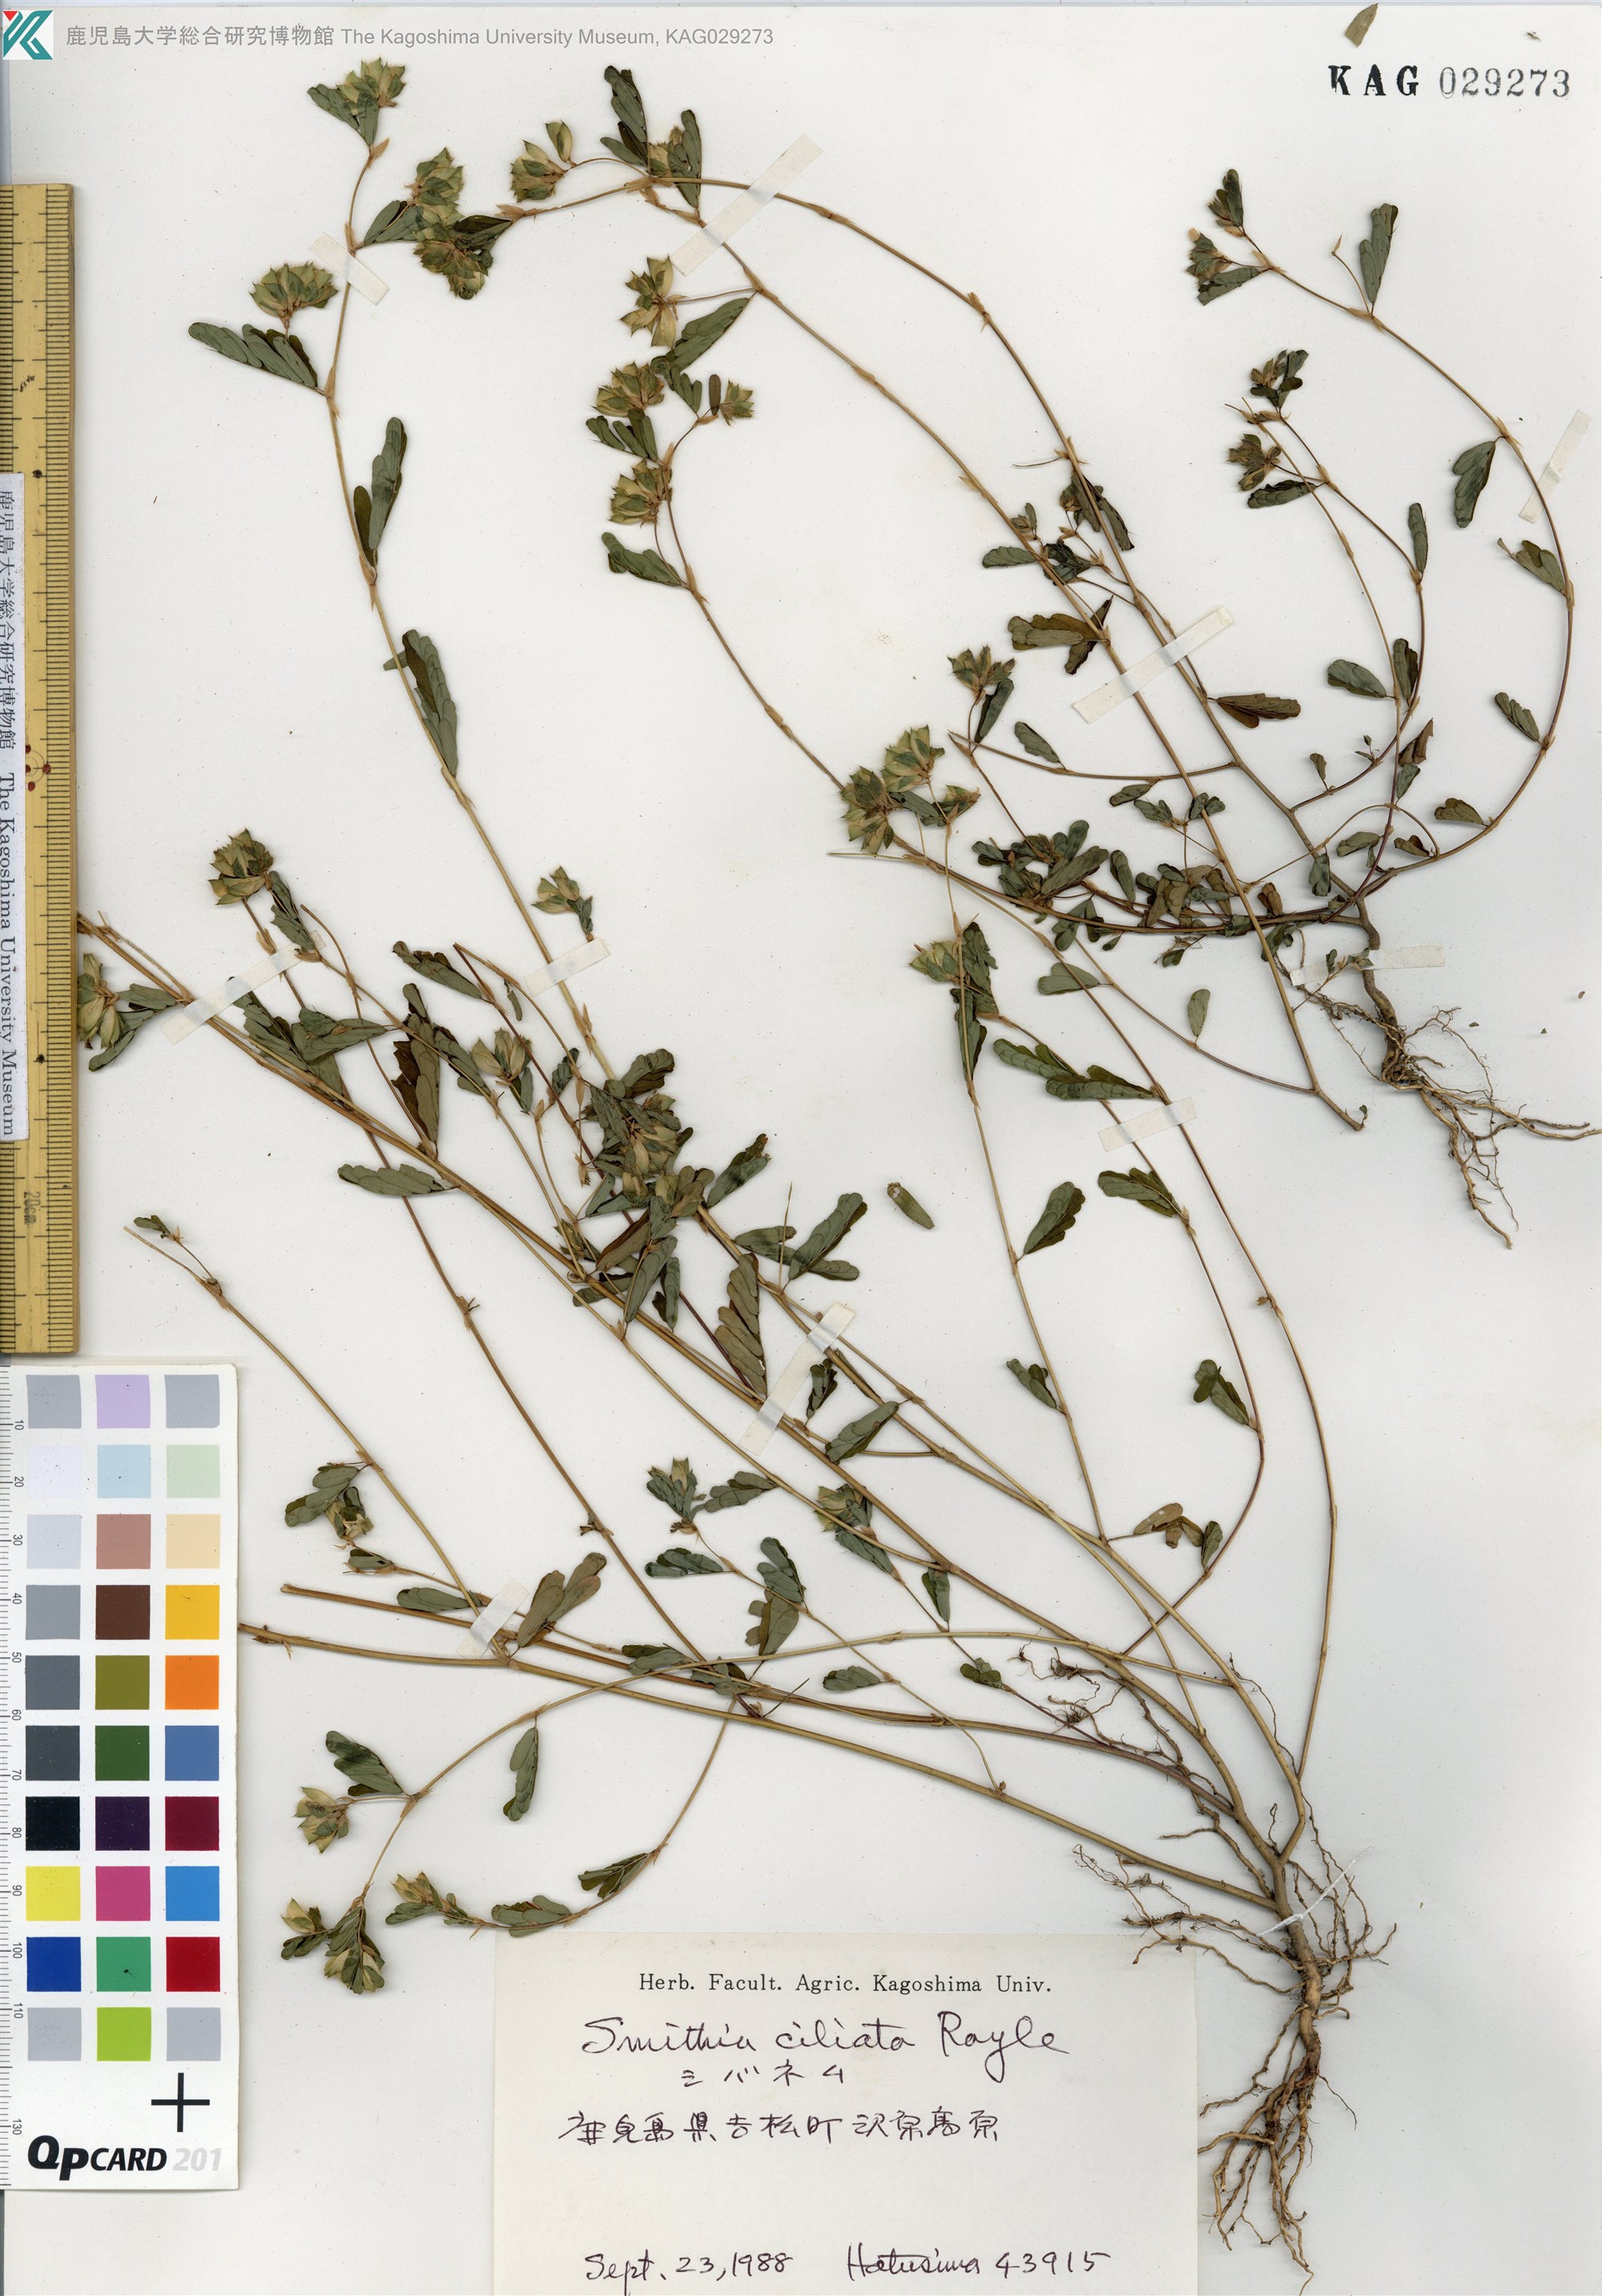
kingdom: Plantae
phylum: Tracheophyta
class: Magnoliopsida
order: Fabales
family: Fabaceae
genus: Smithia
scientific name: Smithia ciliata
